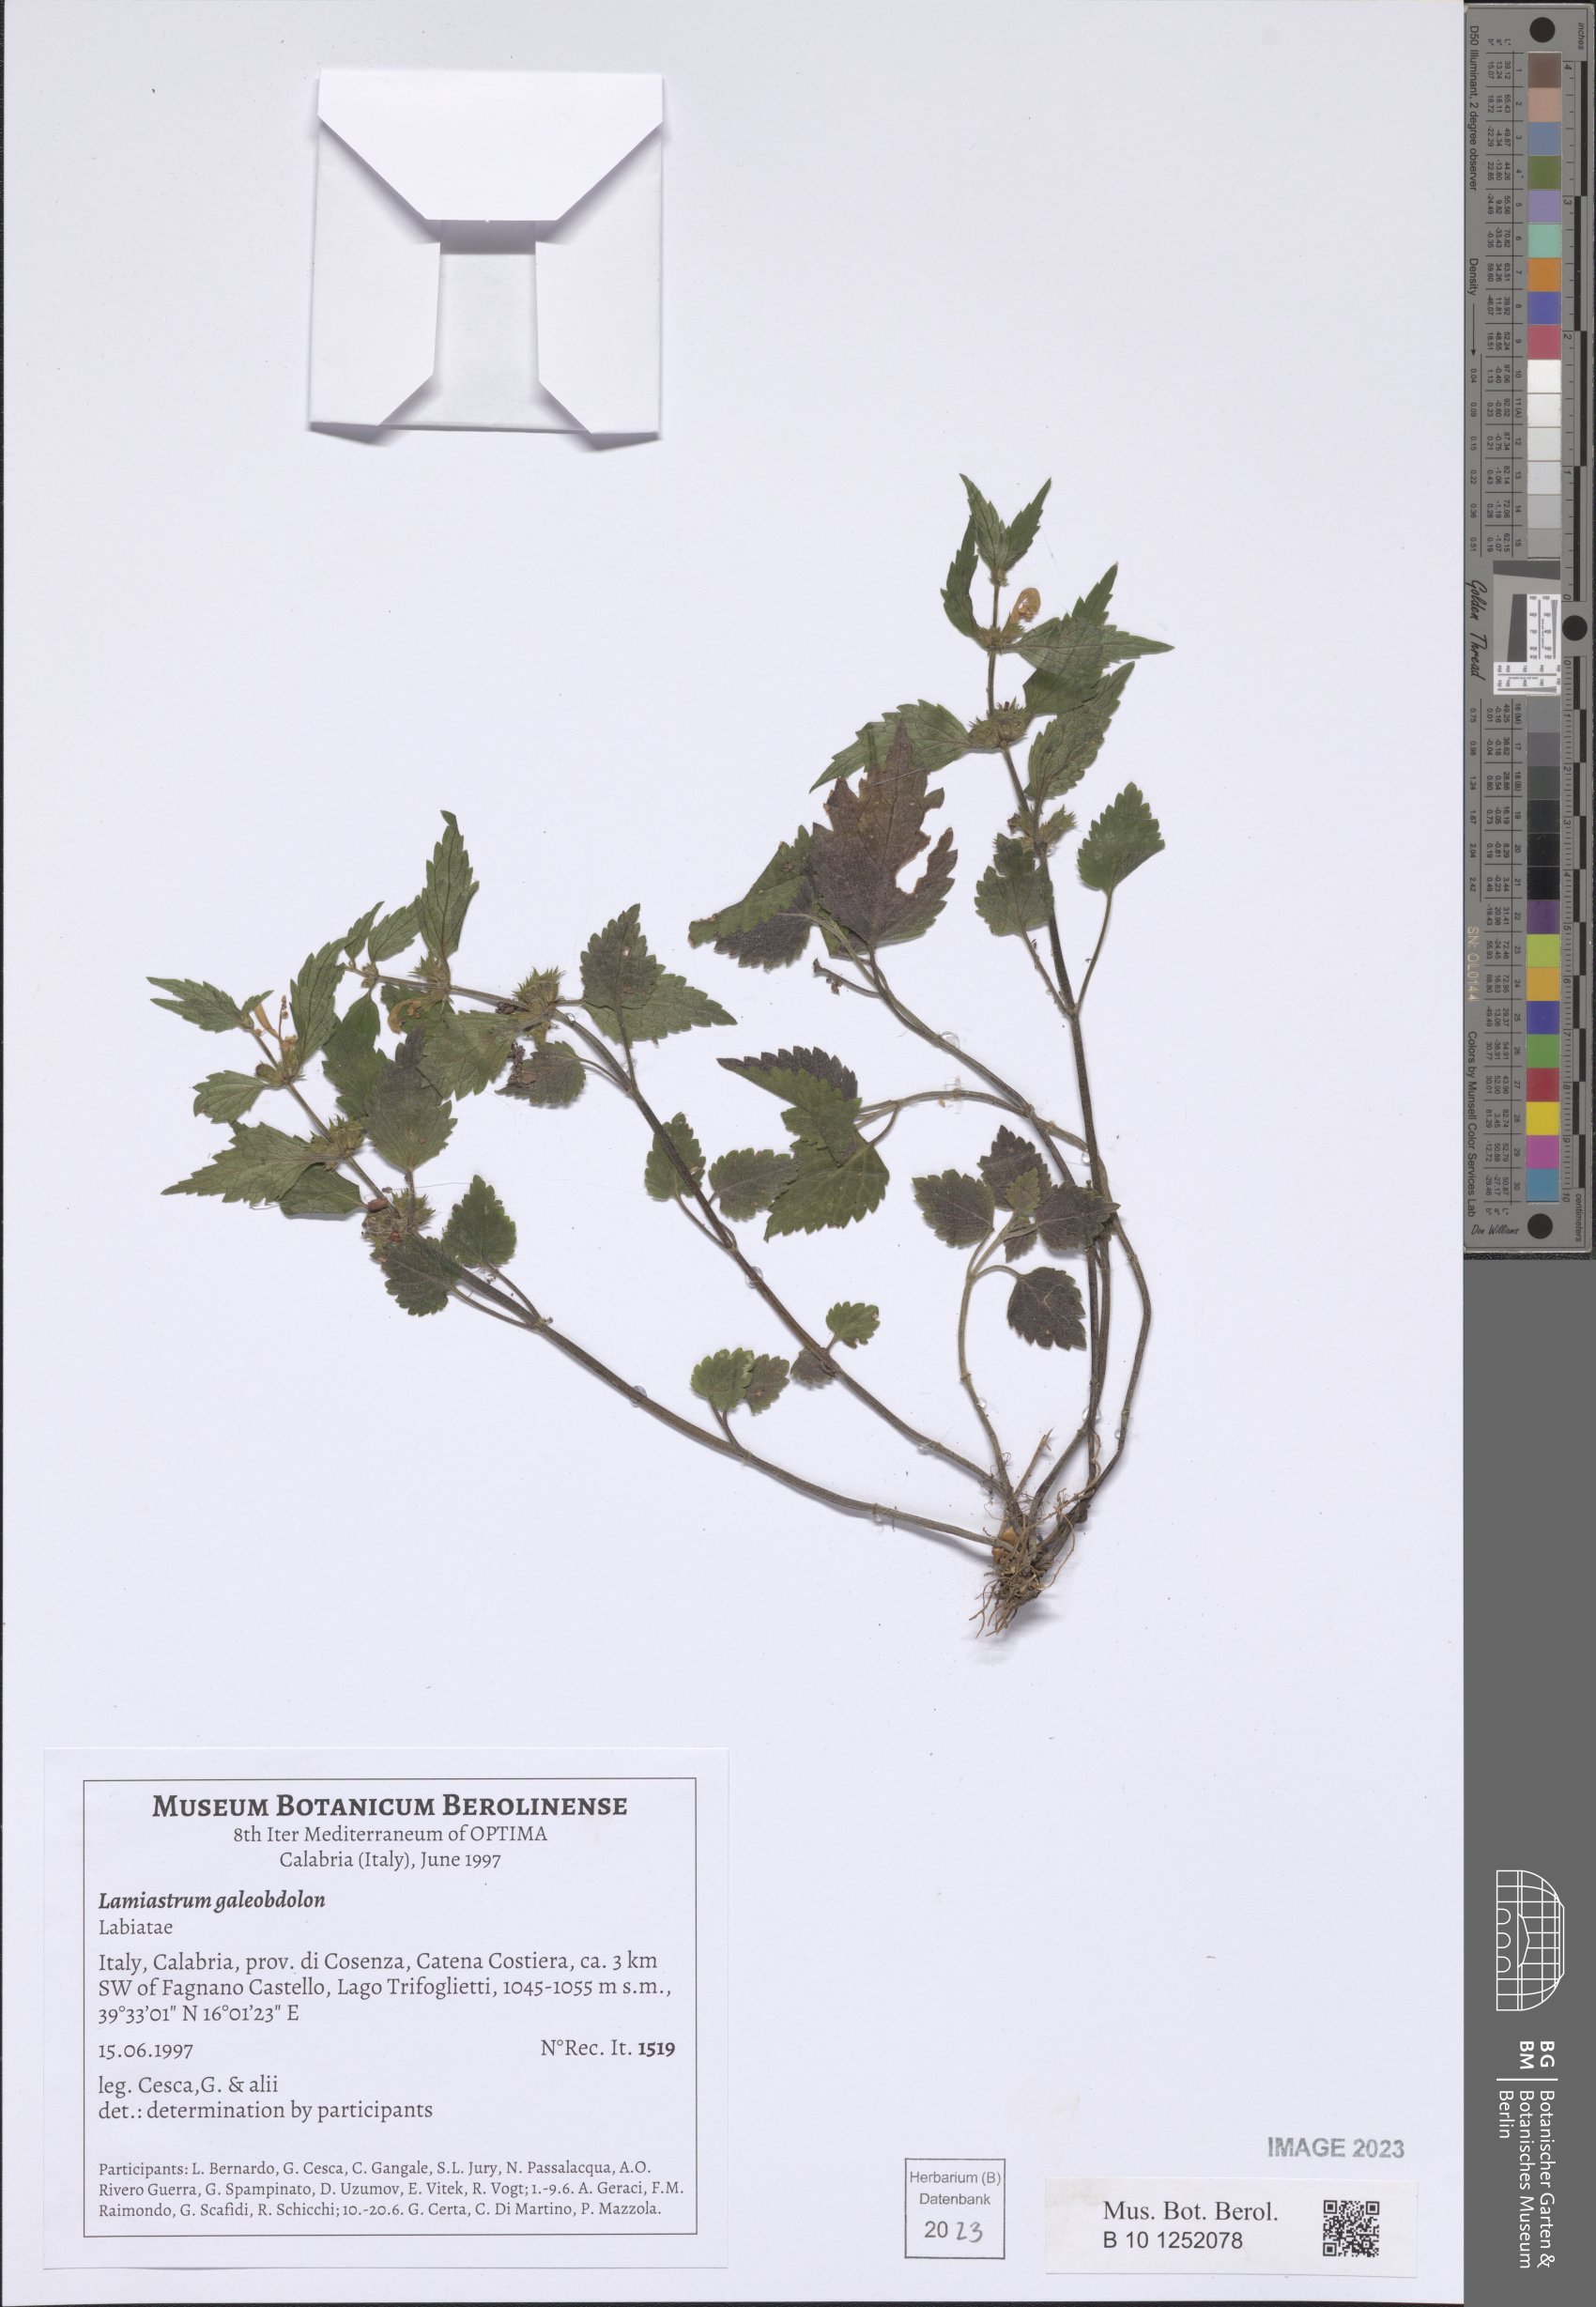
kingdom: Plantae
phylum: Tracheophyta
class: Magnoliopsida
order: Lamiales
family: Lamiaceae
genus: Lamium
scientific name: Lamium galeobdolon
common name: Yellow archangel
